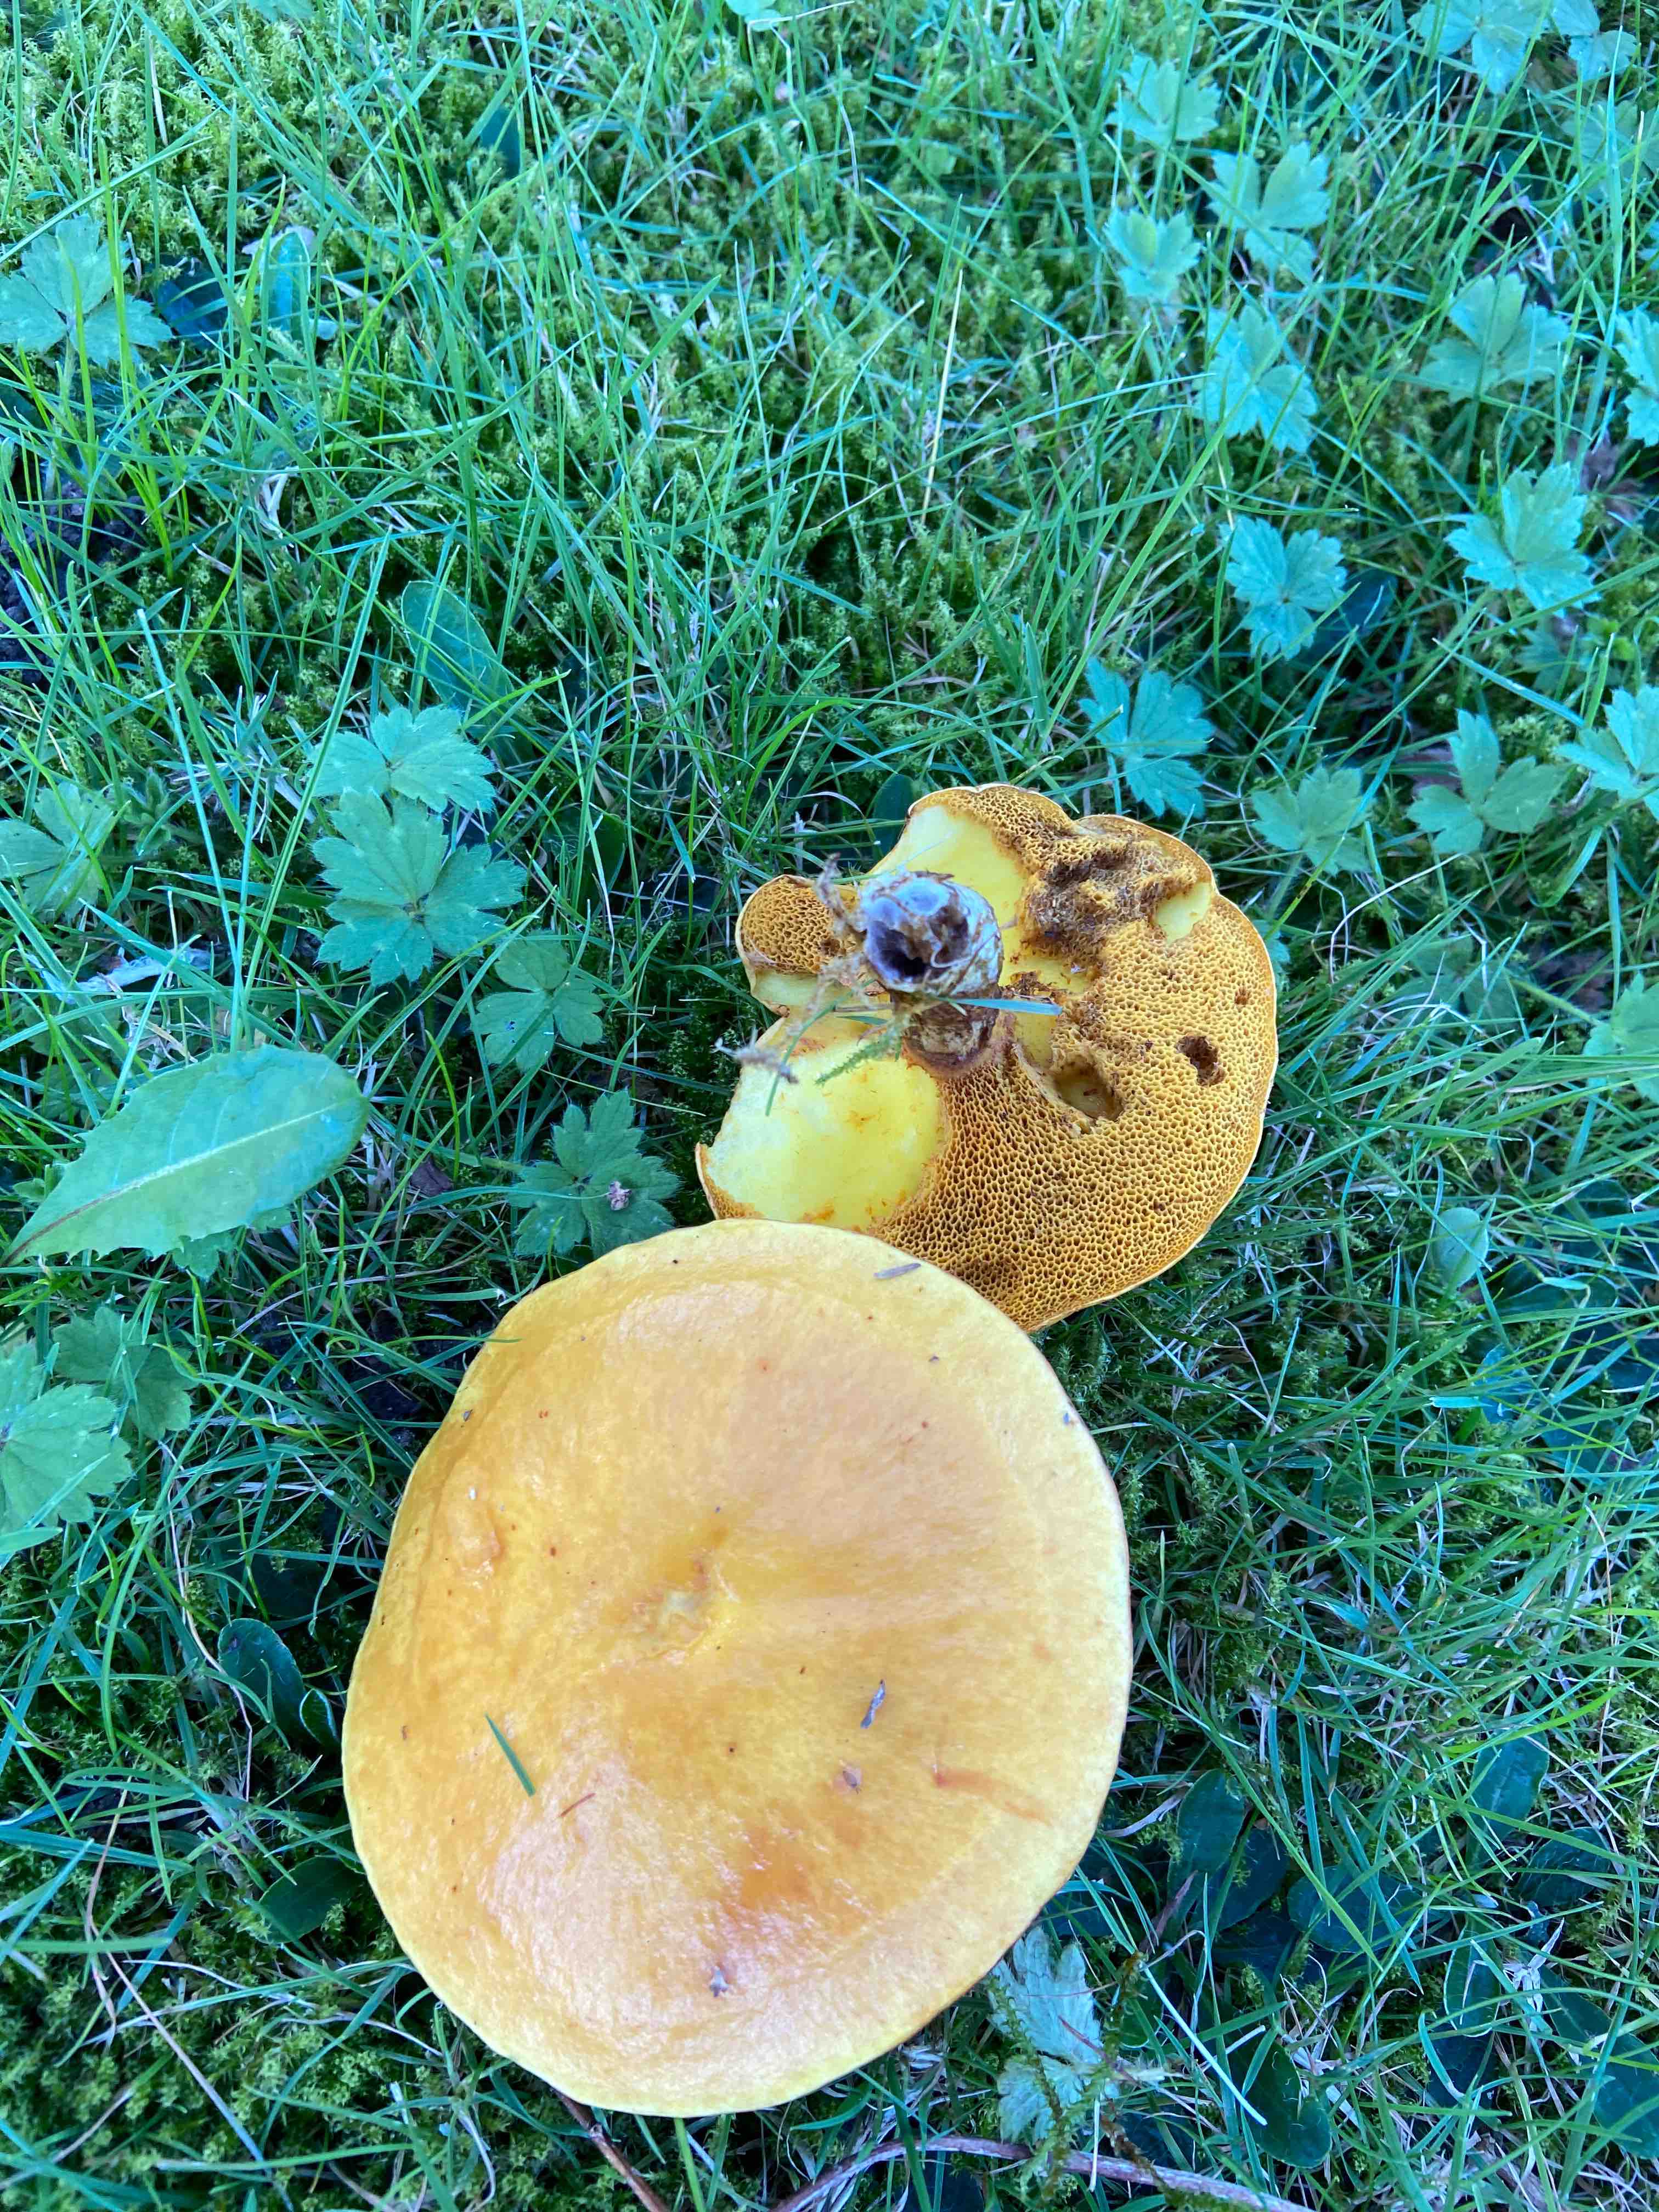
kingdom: Fungi
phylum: Basidiomycota
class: Agaricomycetes
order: Boletales
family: Suillaceae
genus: Suillus
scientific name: Suillus grevillei
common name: lærke-slimrørhat
